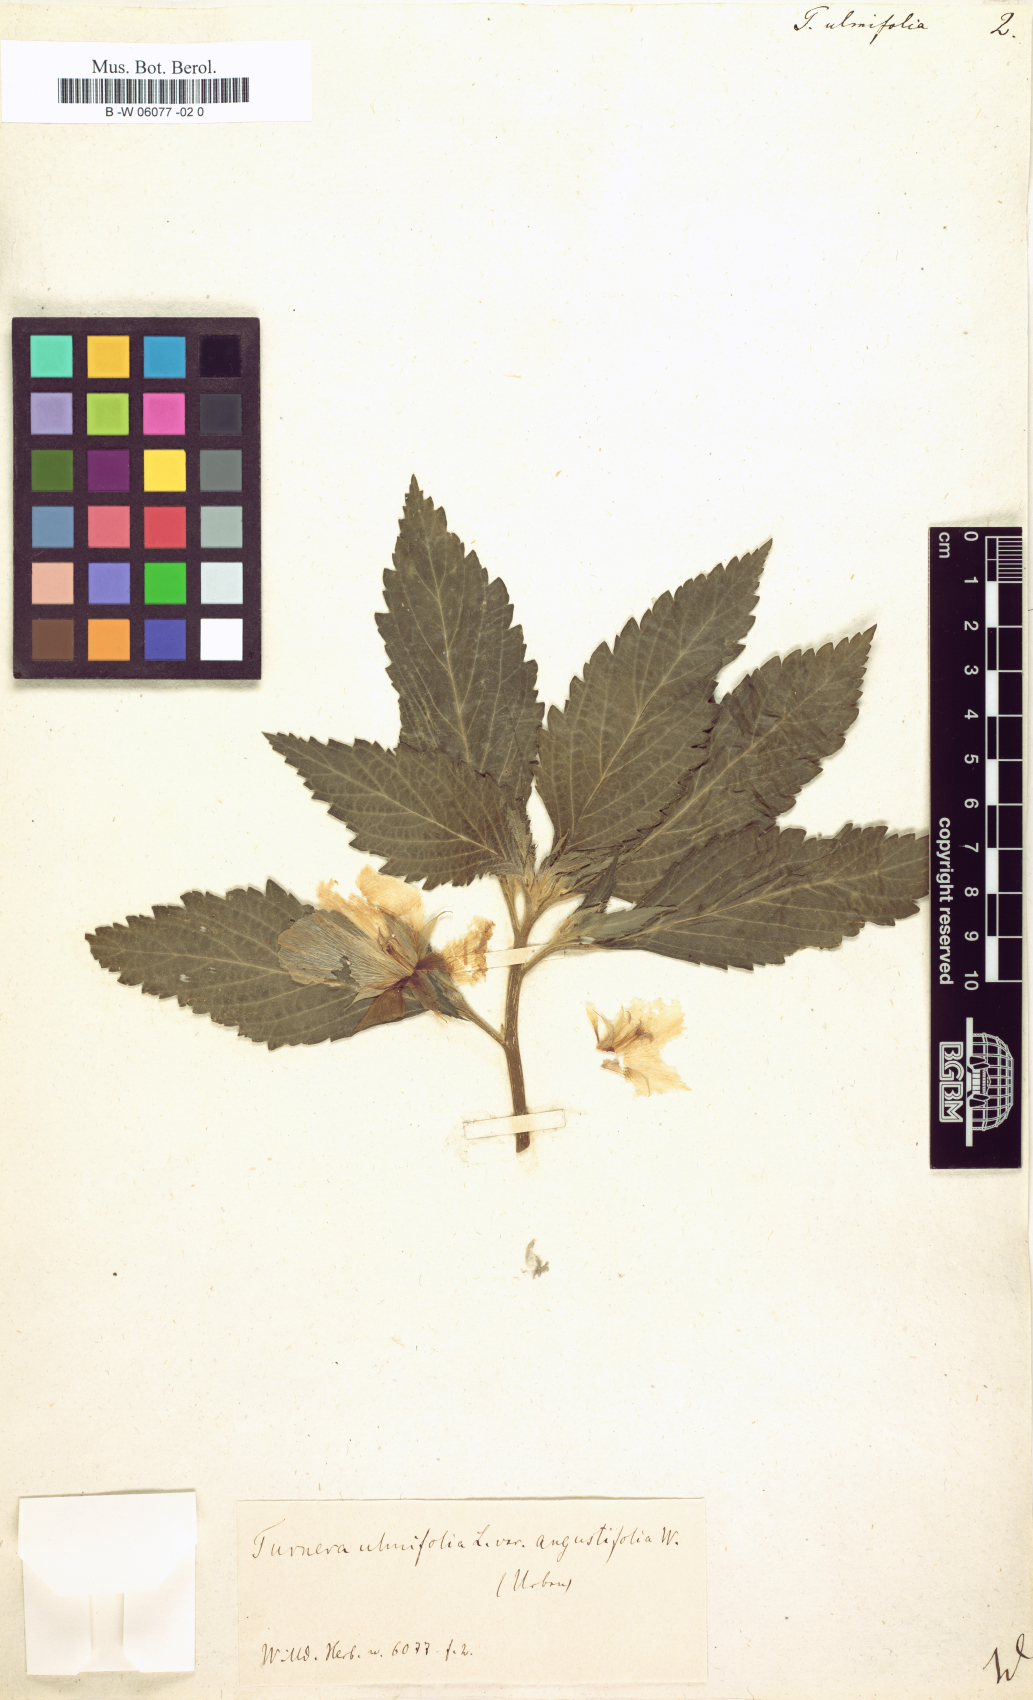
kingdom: Plantae
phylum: Tracheophyta
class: Magnoliopsida
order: Malpighiales
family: Turneraceae
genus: Turnera
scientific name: Turnera ulmifolia
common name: Ramgoat dashalong
